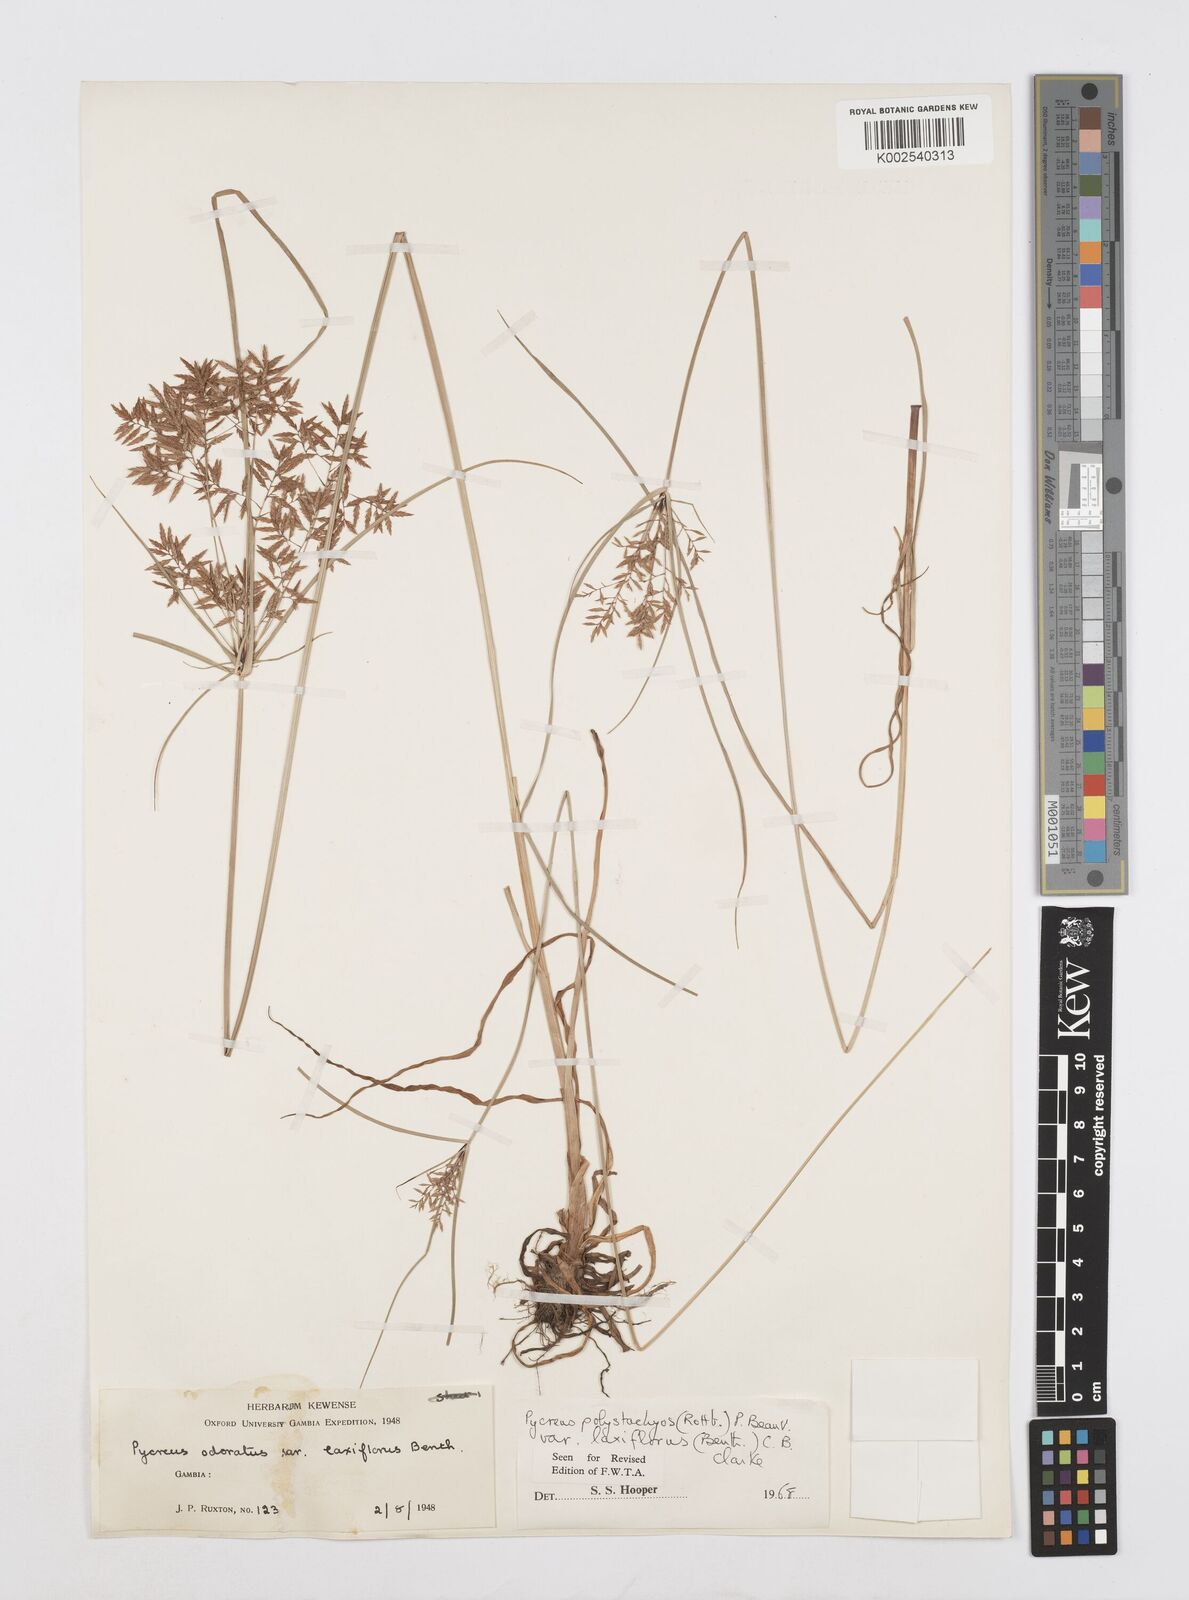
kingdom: Plantae
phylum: Tracheophyta
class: Liliopsida
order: Poales
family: Cyperaceae
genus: Cyperus
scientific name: Cyperus polystachyos
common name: Bunchy flat sedge
